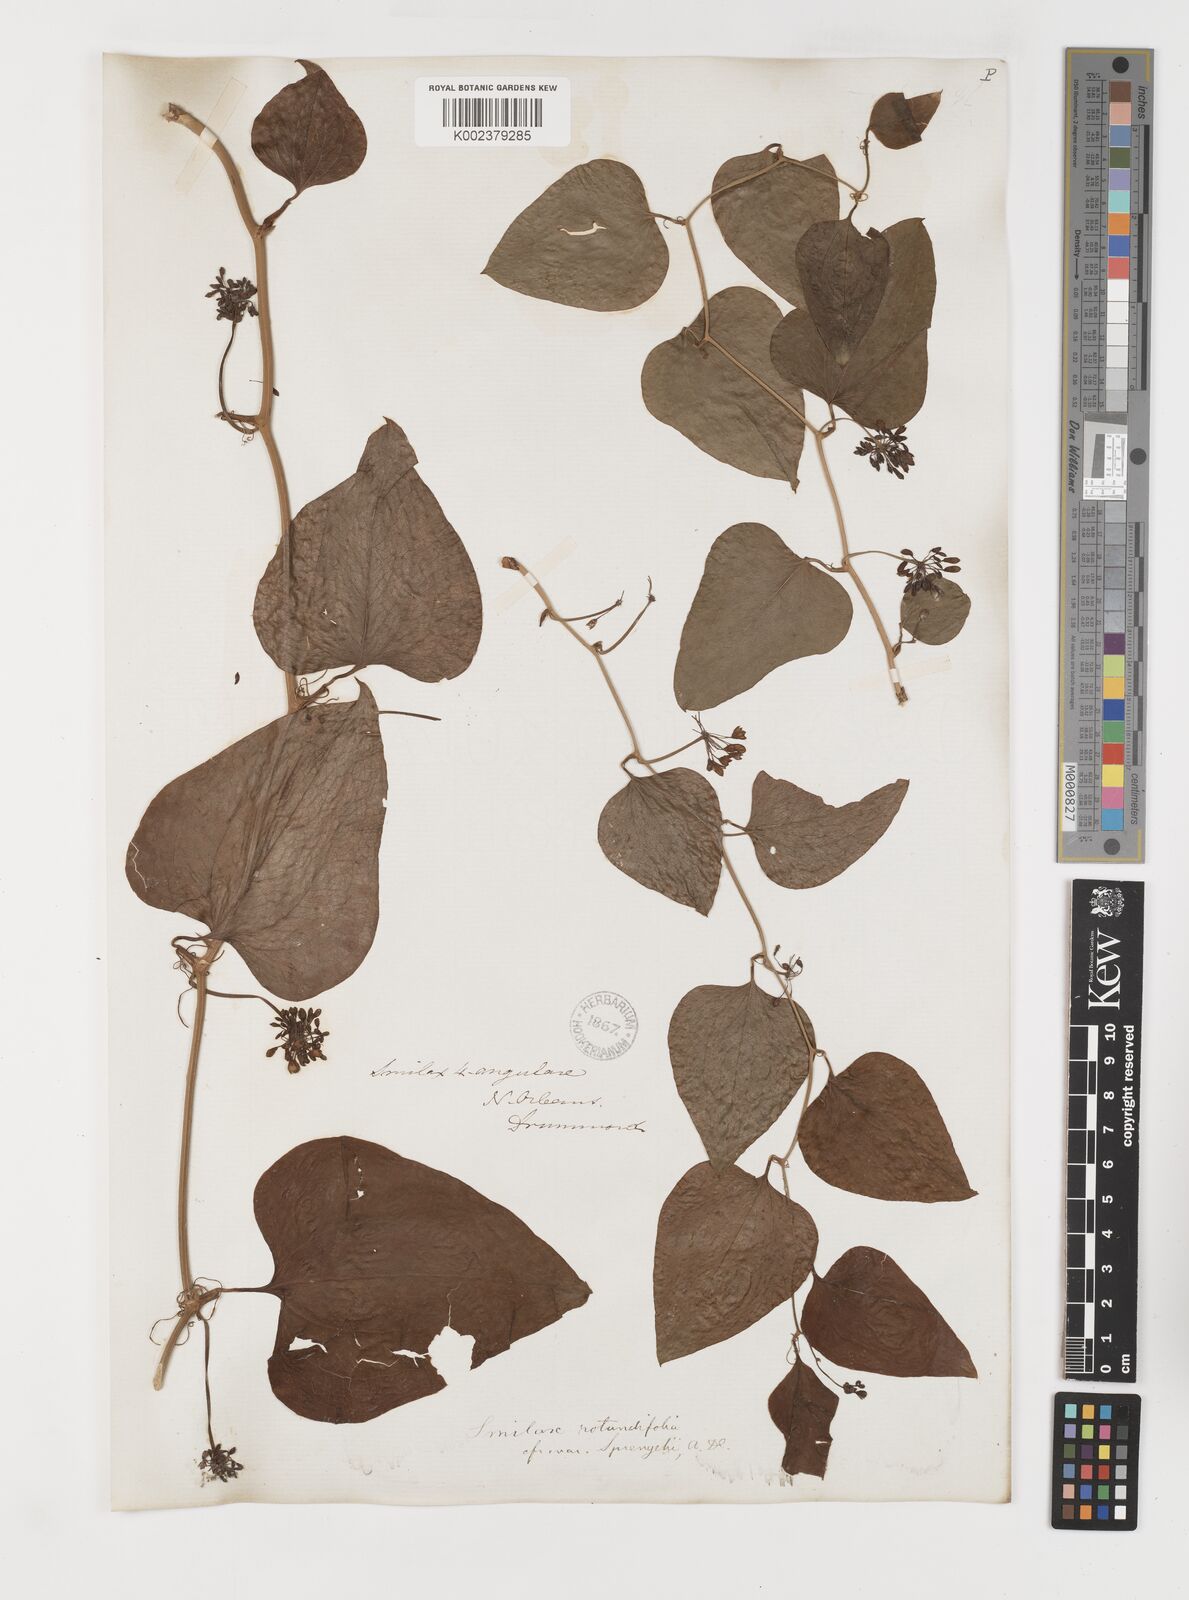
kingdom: Plantae
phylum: Tracheophyta
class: Liliopsida
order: Liliales
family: Smilacaceae
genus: Smilax
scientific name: Smilax rotundifolia
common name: Bullbriar
